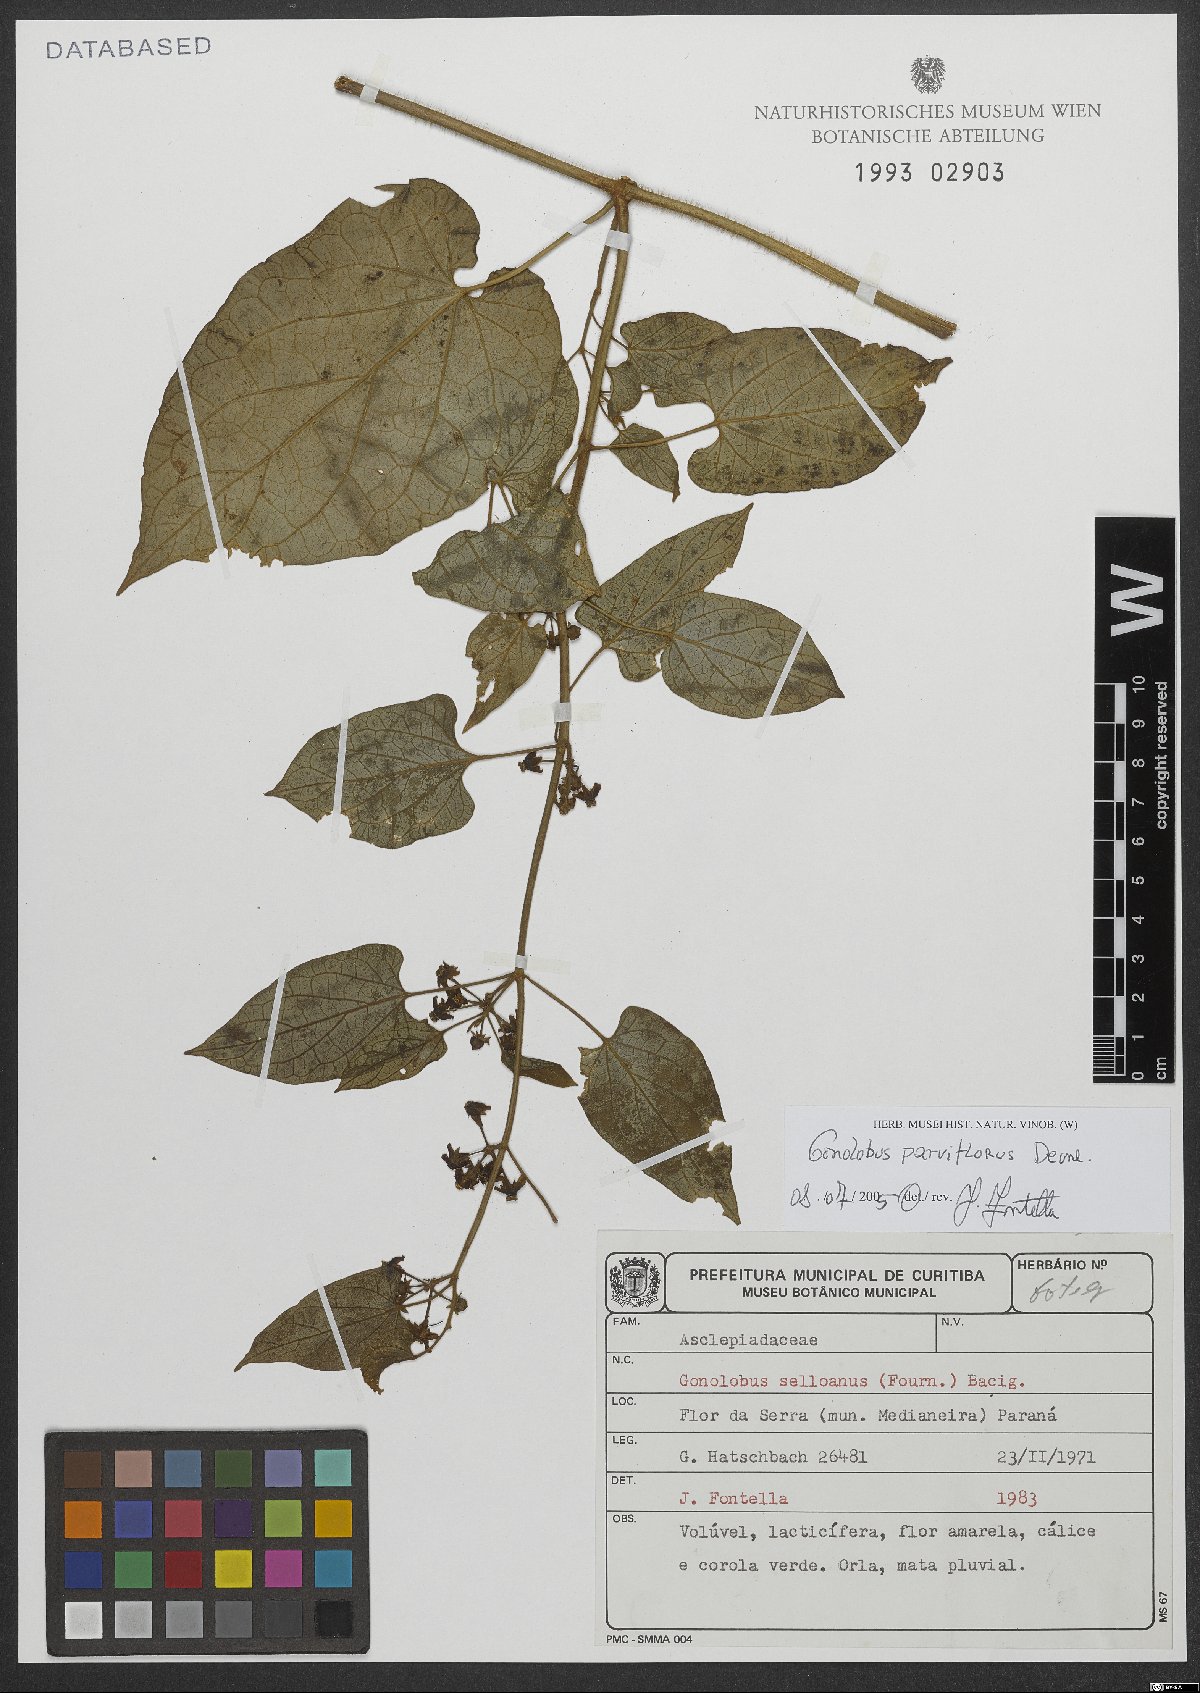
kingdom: Plantae
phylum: Tracheophyta
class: Magnoliopsida
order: Gentianales
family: Apocynaceae
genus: Gonolobus
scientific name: Gonolobus parviflorus
